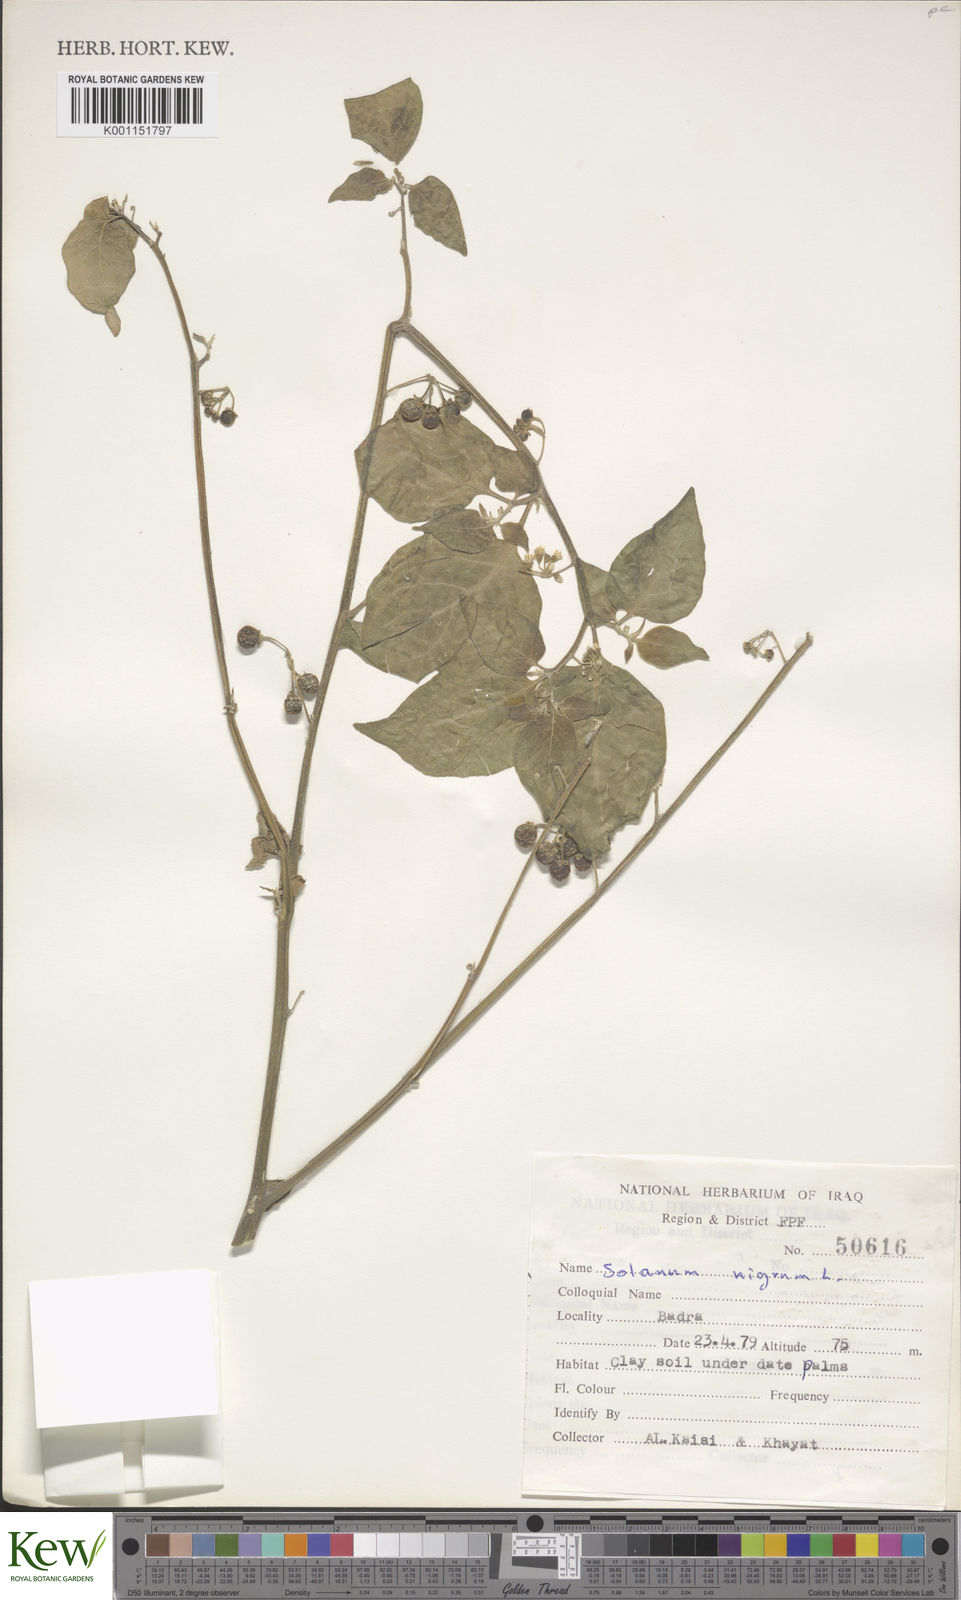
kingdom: Plantae
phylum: Tracheophyta
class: Magnoliopsida
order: Solanales
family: Solanaceae
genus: Solanum
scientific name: Solanum nigrum
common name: Black nightshade
